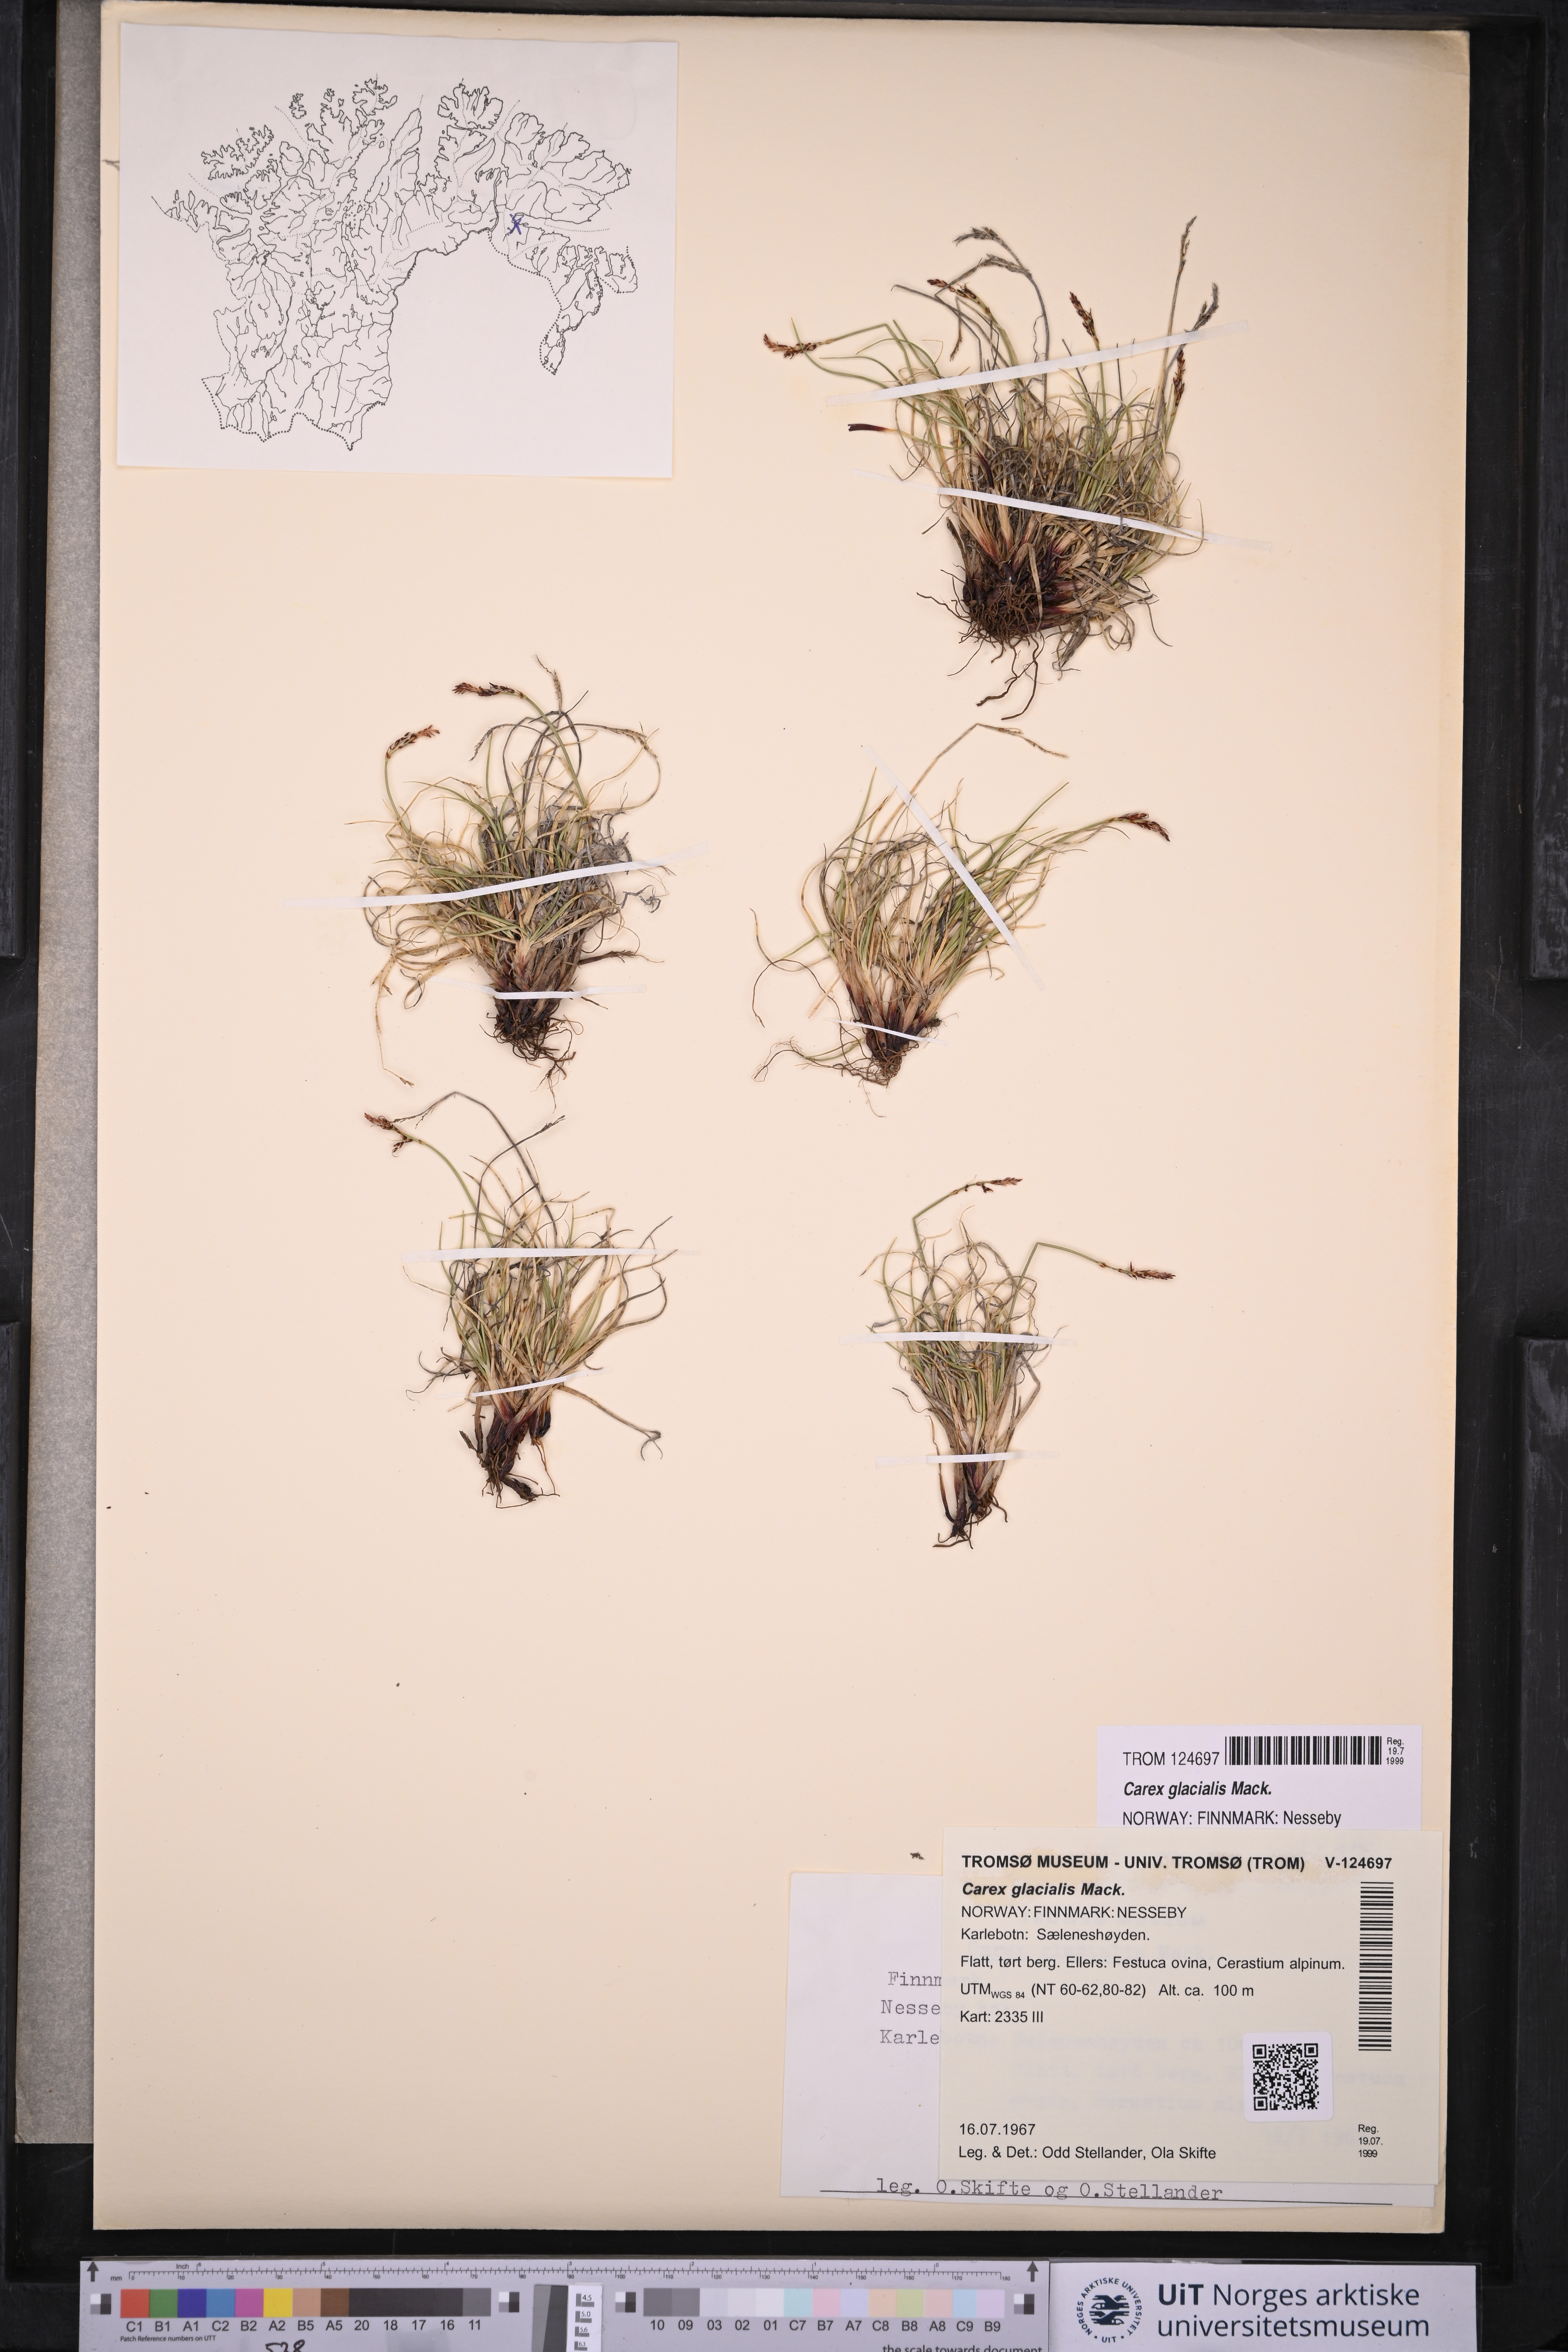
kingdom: Plantae
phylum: Tracheophyta
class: Liliopsida
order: Poales
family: Cyperaceae
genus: Carex
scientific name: Carex glacialis
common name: Newfoundland sedge
